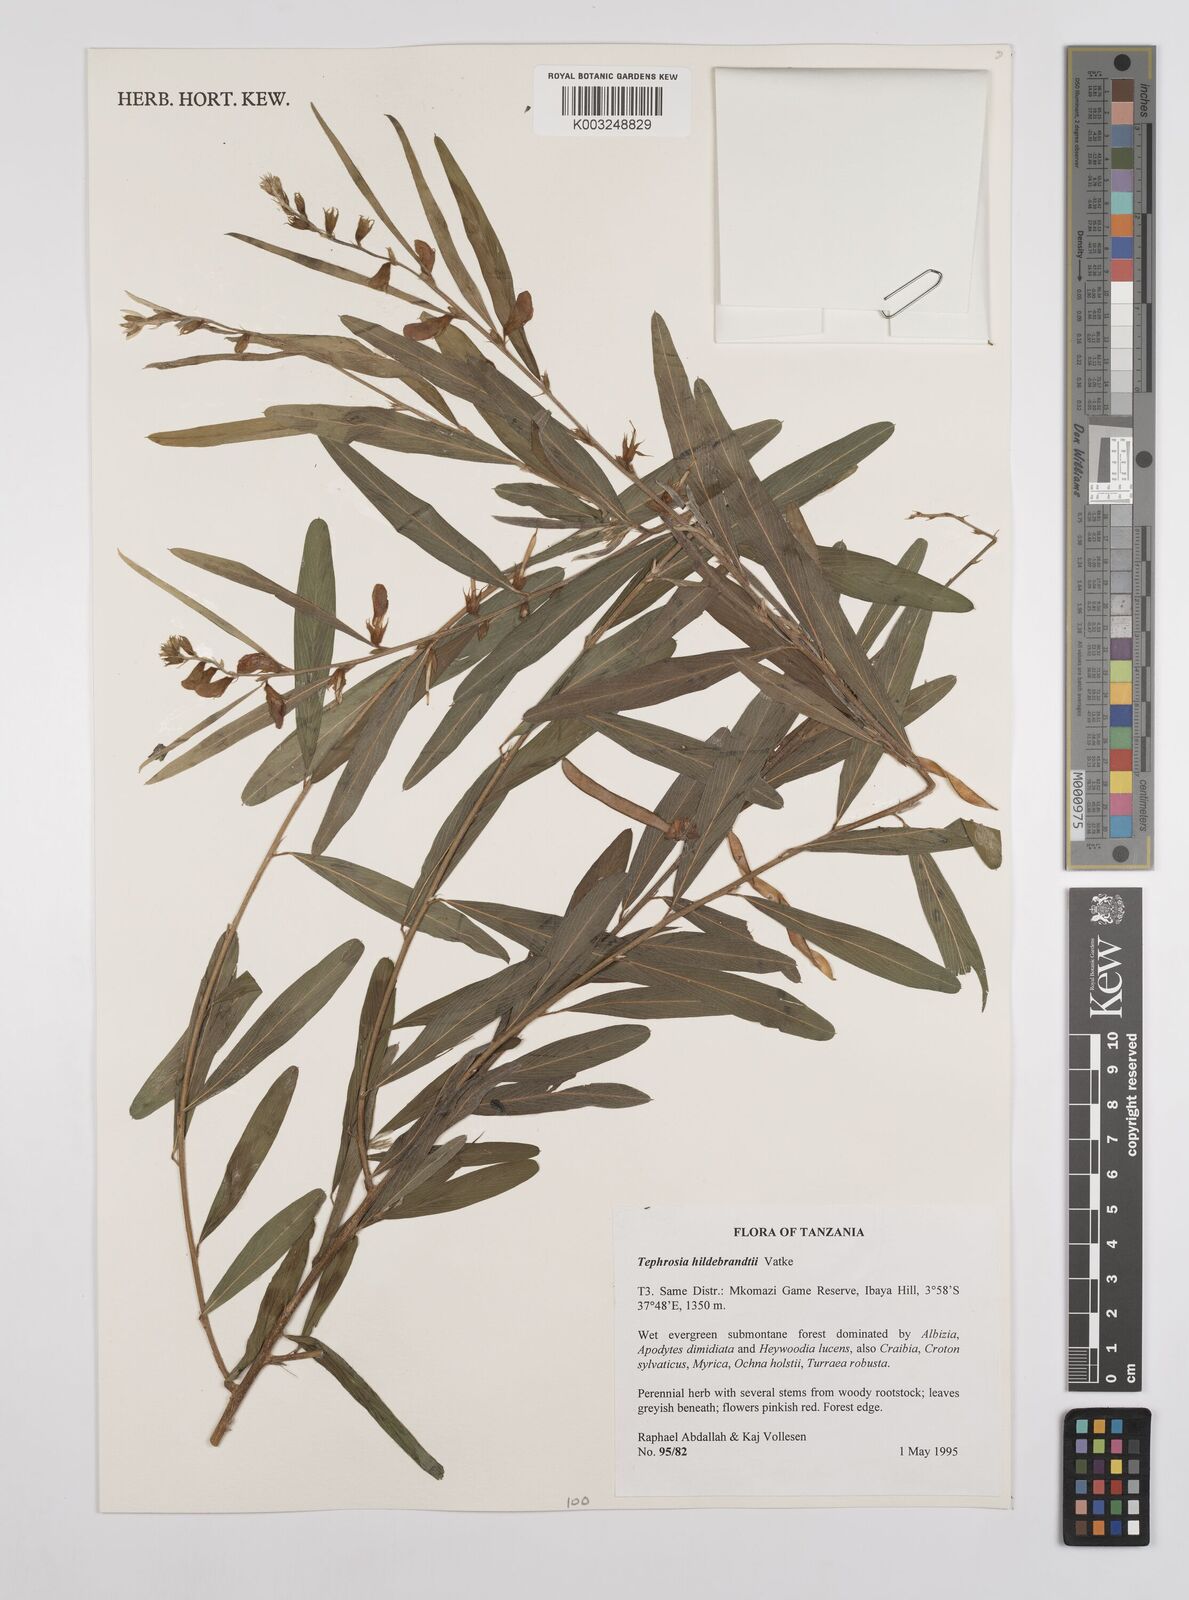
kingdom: Plantae
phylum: Tracheophyta
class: Magnoliopsida
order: Fabales
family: Fabaceae
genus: Tephrosia
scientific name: Tephrosia hildebrandtii
